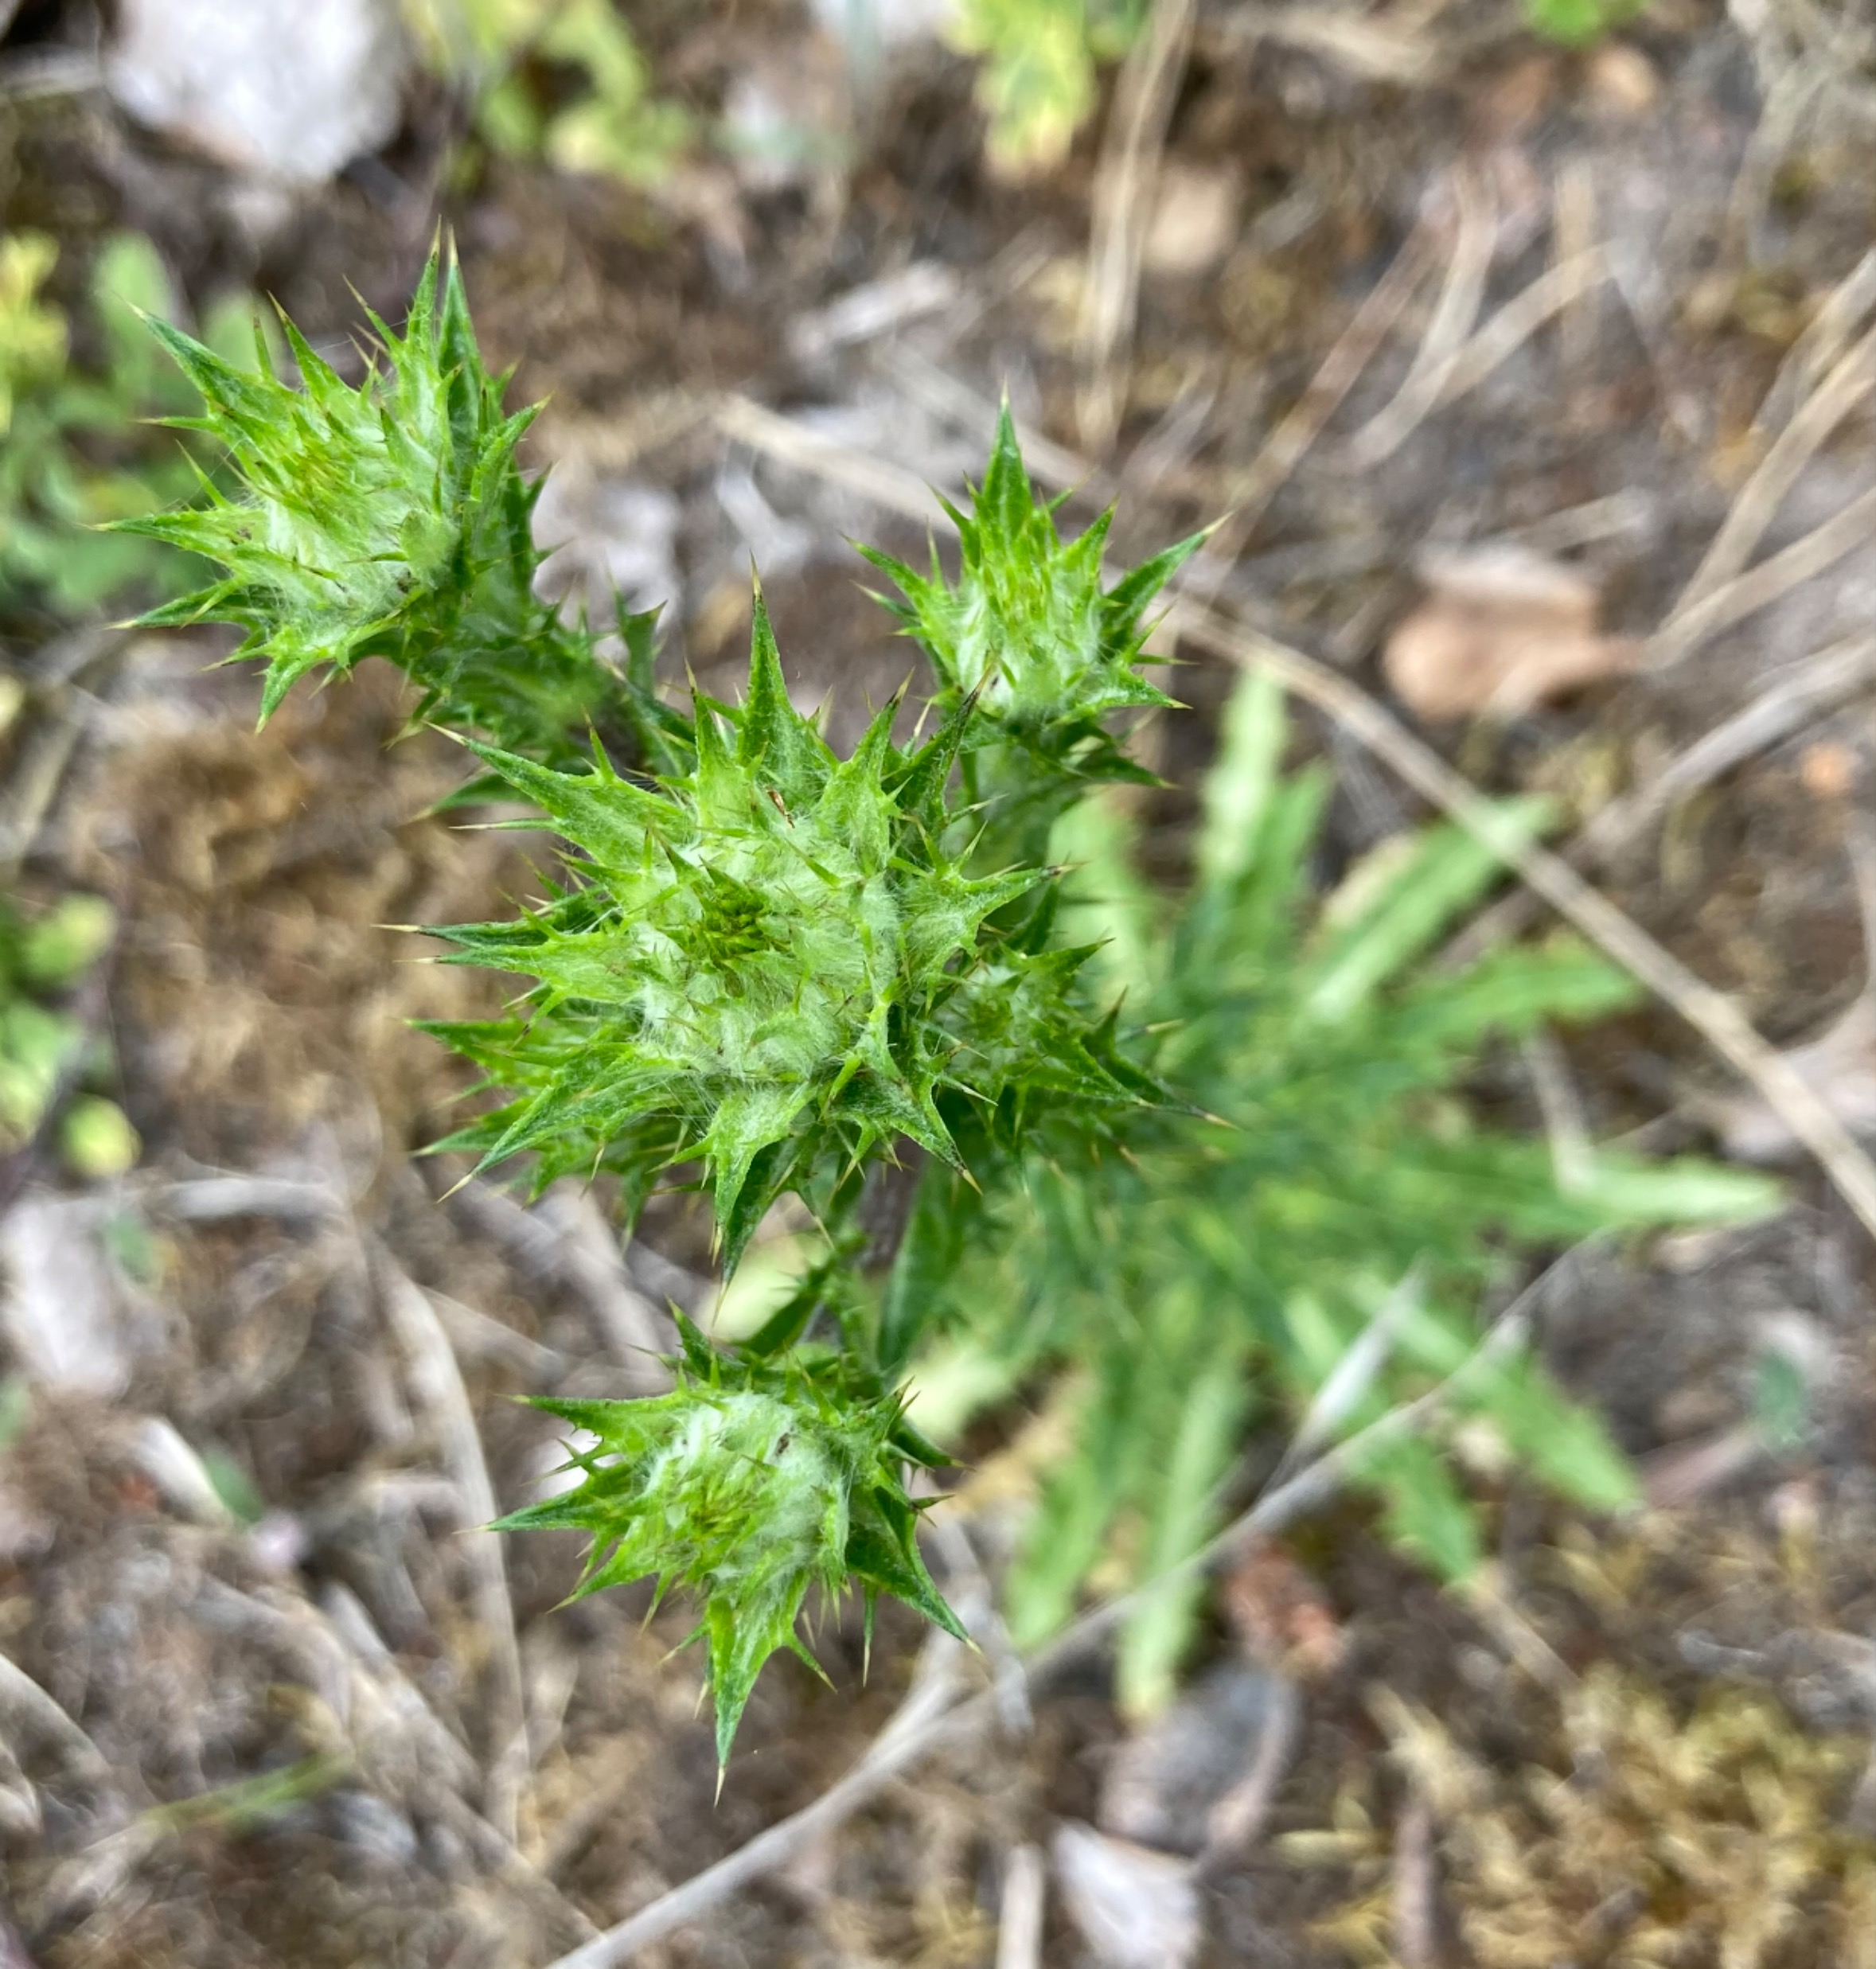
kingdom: Plantae
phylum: Tracheophyta
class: Magnoliopsida
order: Asterales
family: Asteraceae
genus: Carlina
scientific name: Carlina vulgaris
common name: Bakketidsel
